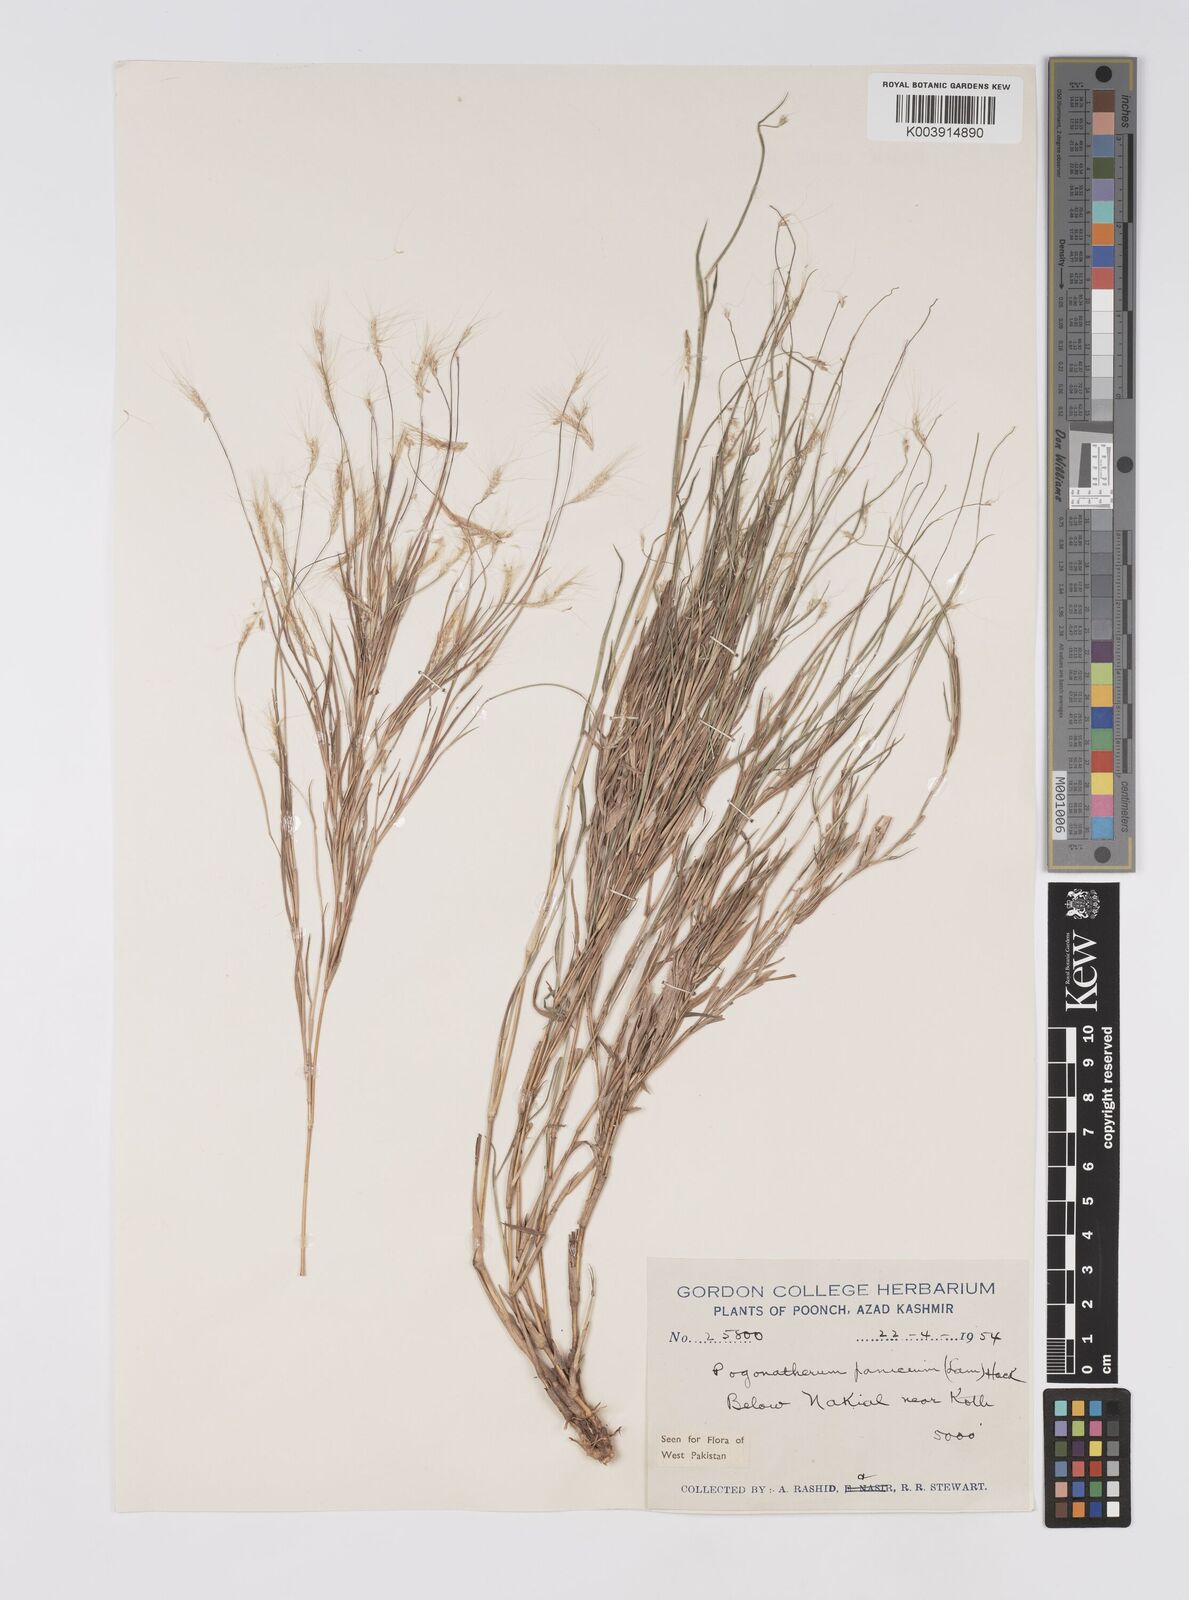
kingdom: Plantae
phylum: Tracheophyta
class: Liliopsida
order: Poales
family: Poaceae
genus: Pogonatherum
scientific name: Pogonatherum paniceum
